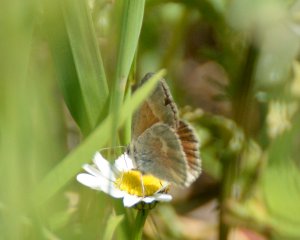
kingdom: Animalia
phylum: Arthropoda
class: Insecta
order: Lepidoptera
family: Nymphalidae
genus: Coenonympha
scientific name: Coenonympha tullia
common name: Large Heath
